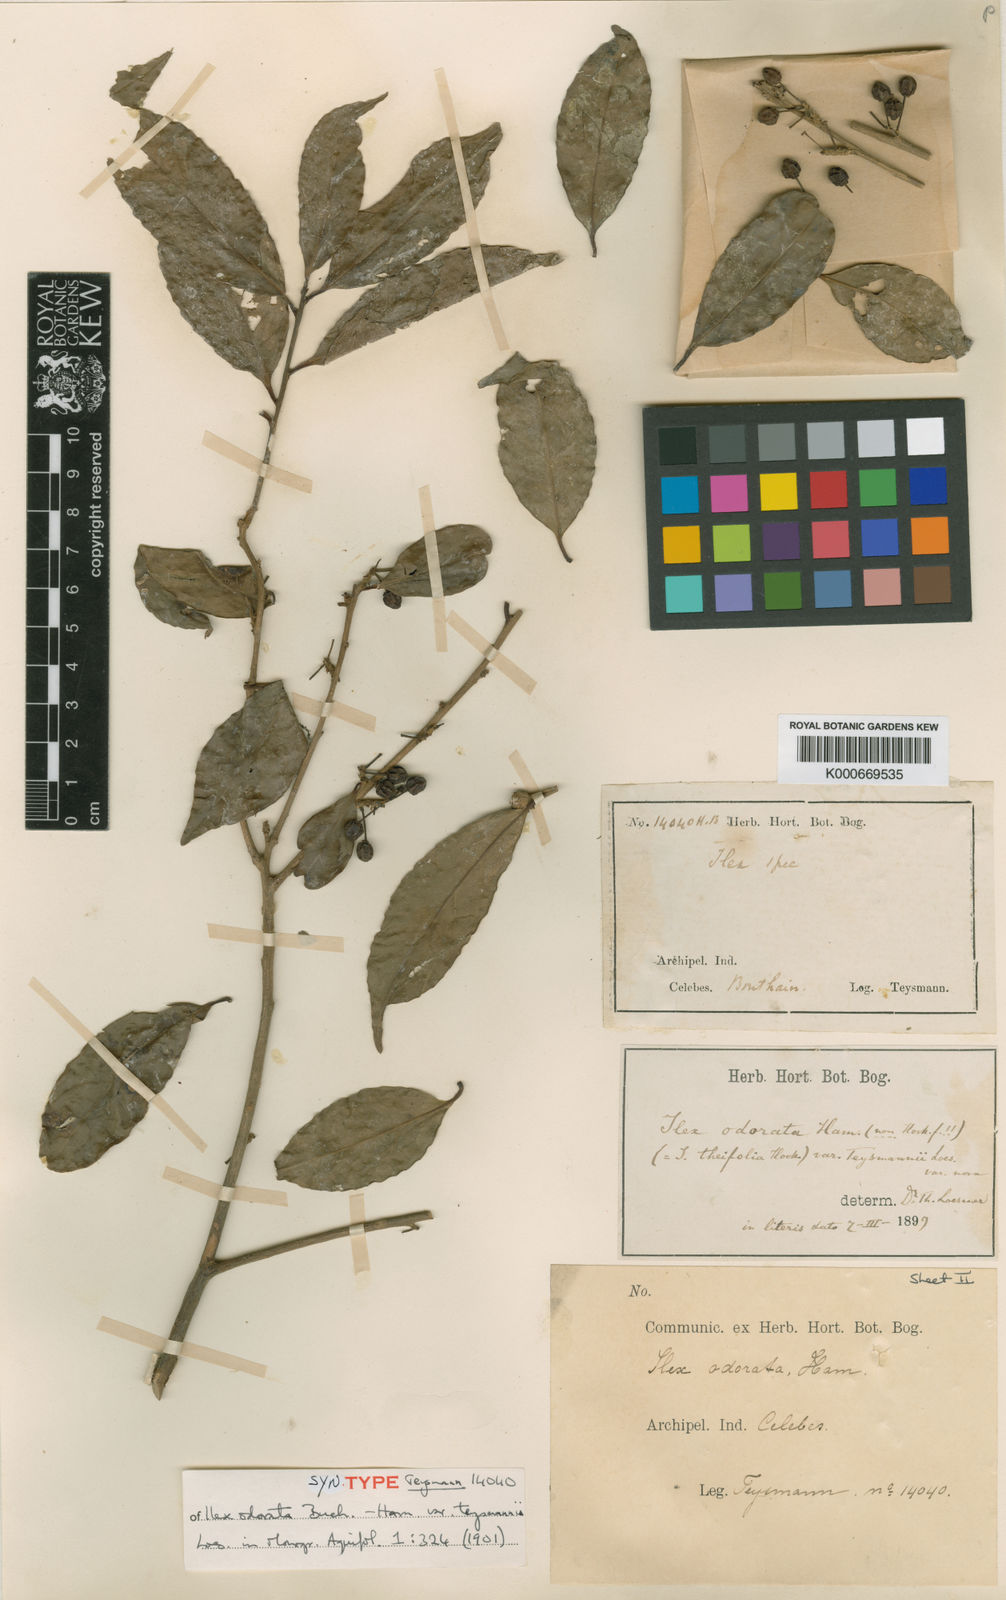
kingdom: Plantae
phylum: Tracheophyta
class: Magnoliopsida
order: Aquifoliales
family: Aquifoliaceae
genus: Ilex
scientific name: Ilex odorata
